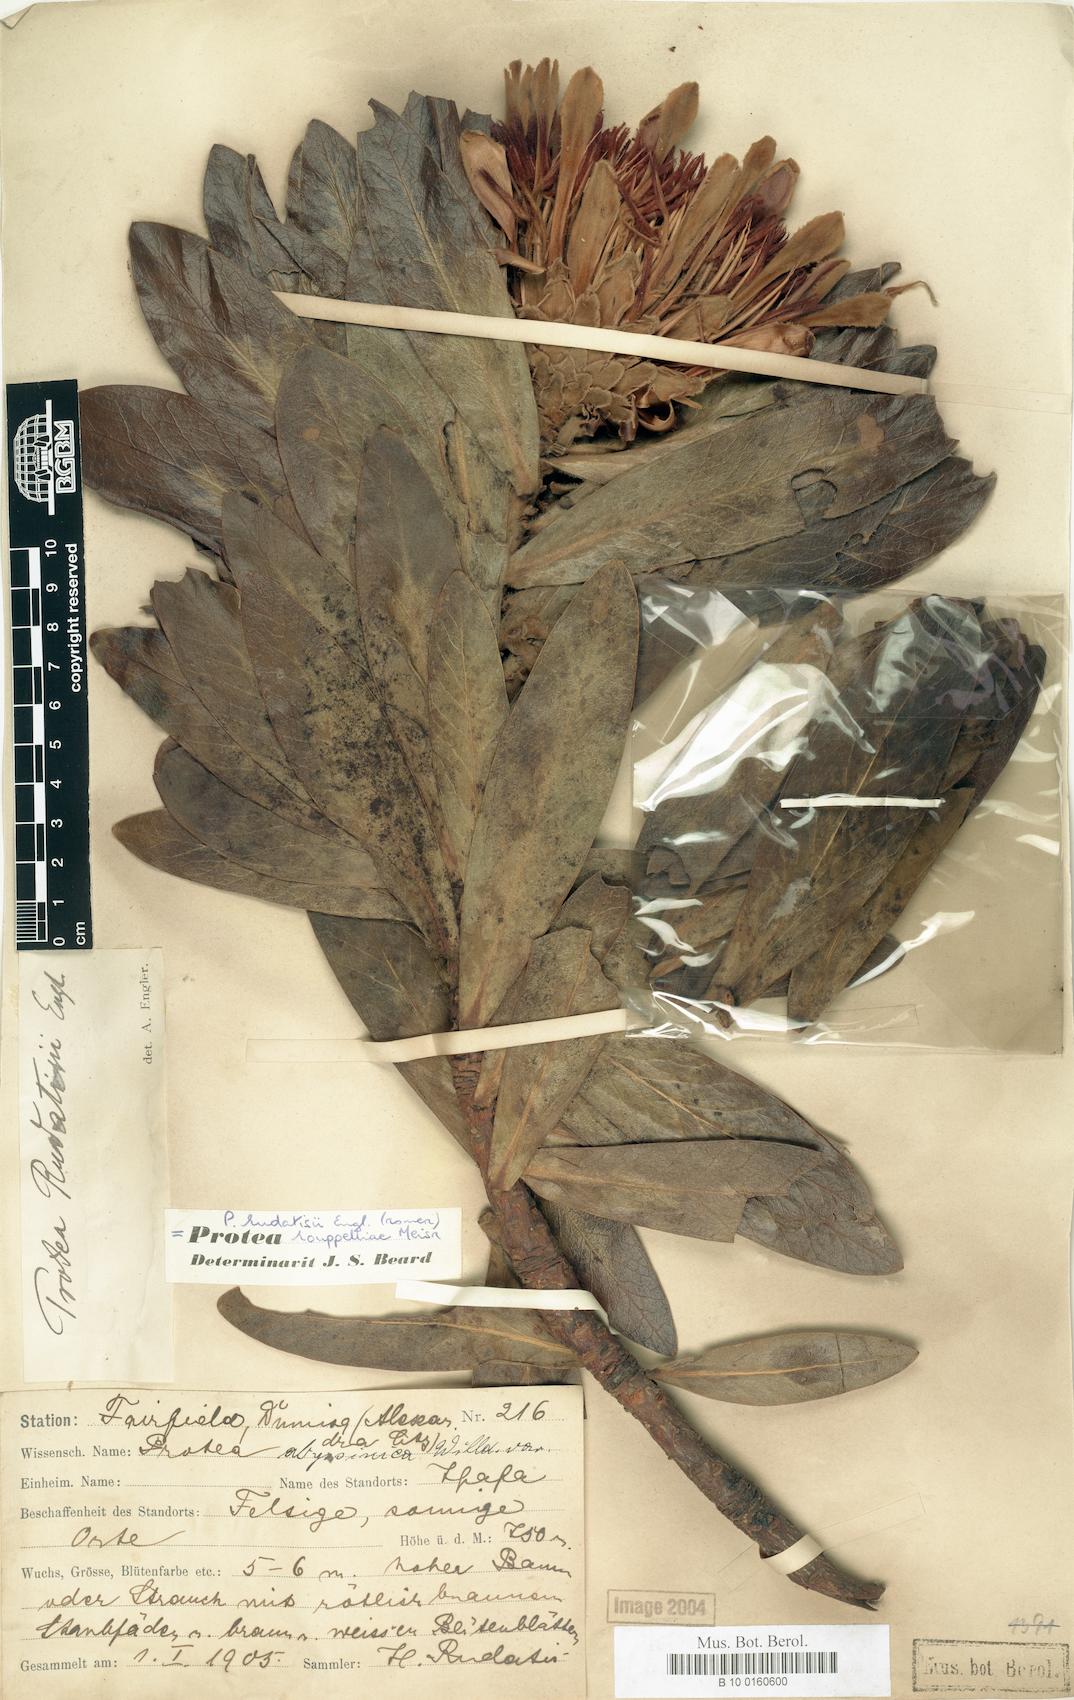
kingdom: Plantae
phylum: Tracheophyta
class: Magnoliopsida
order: Proteales
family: Proteaceae
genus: Protea
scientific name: Protea roupelliae
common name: Silver sugarbush
